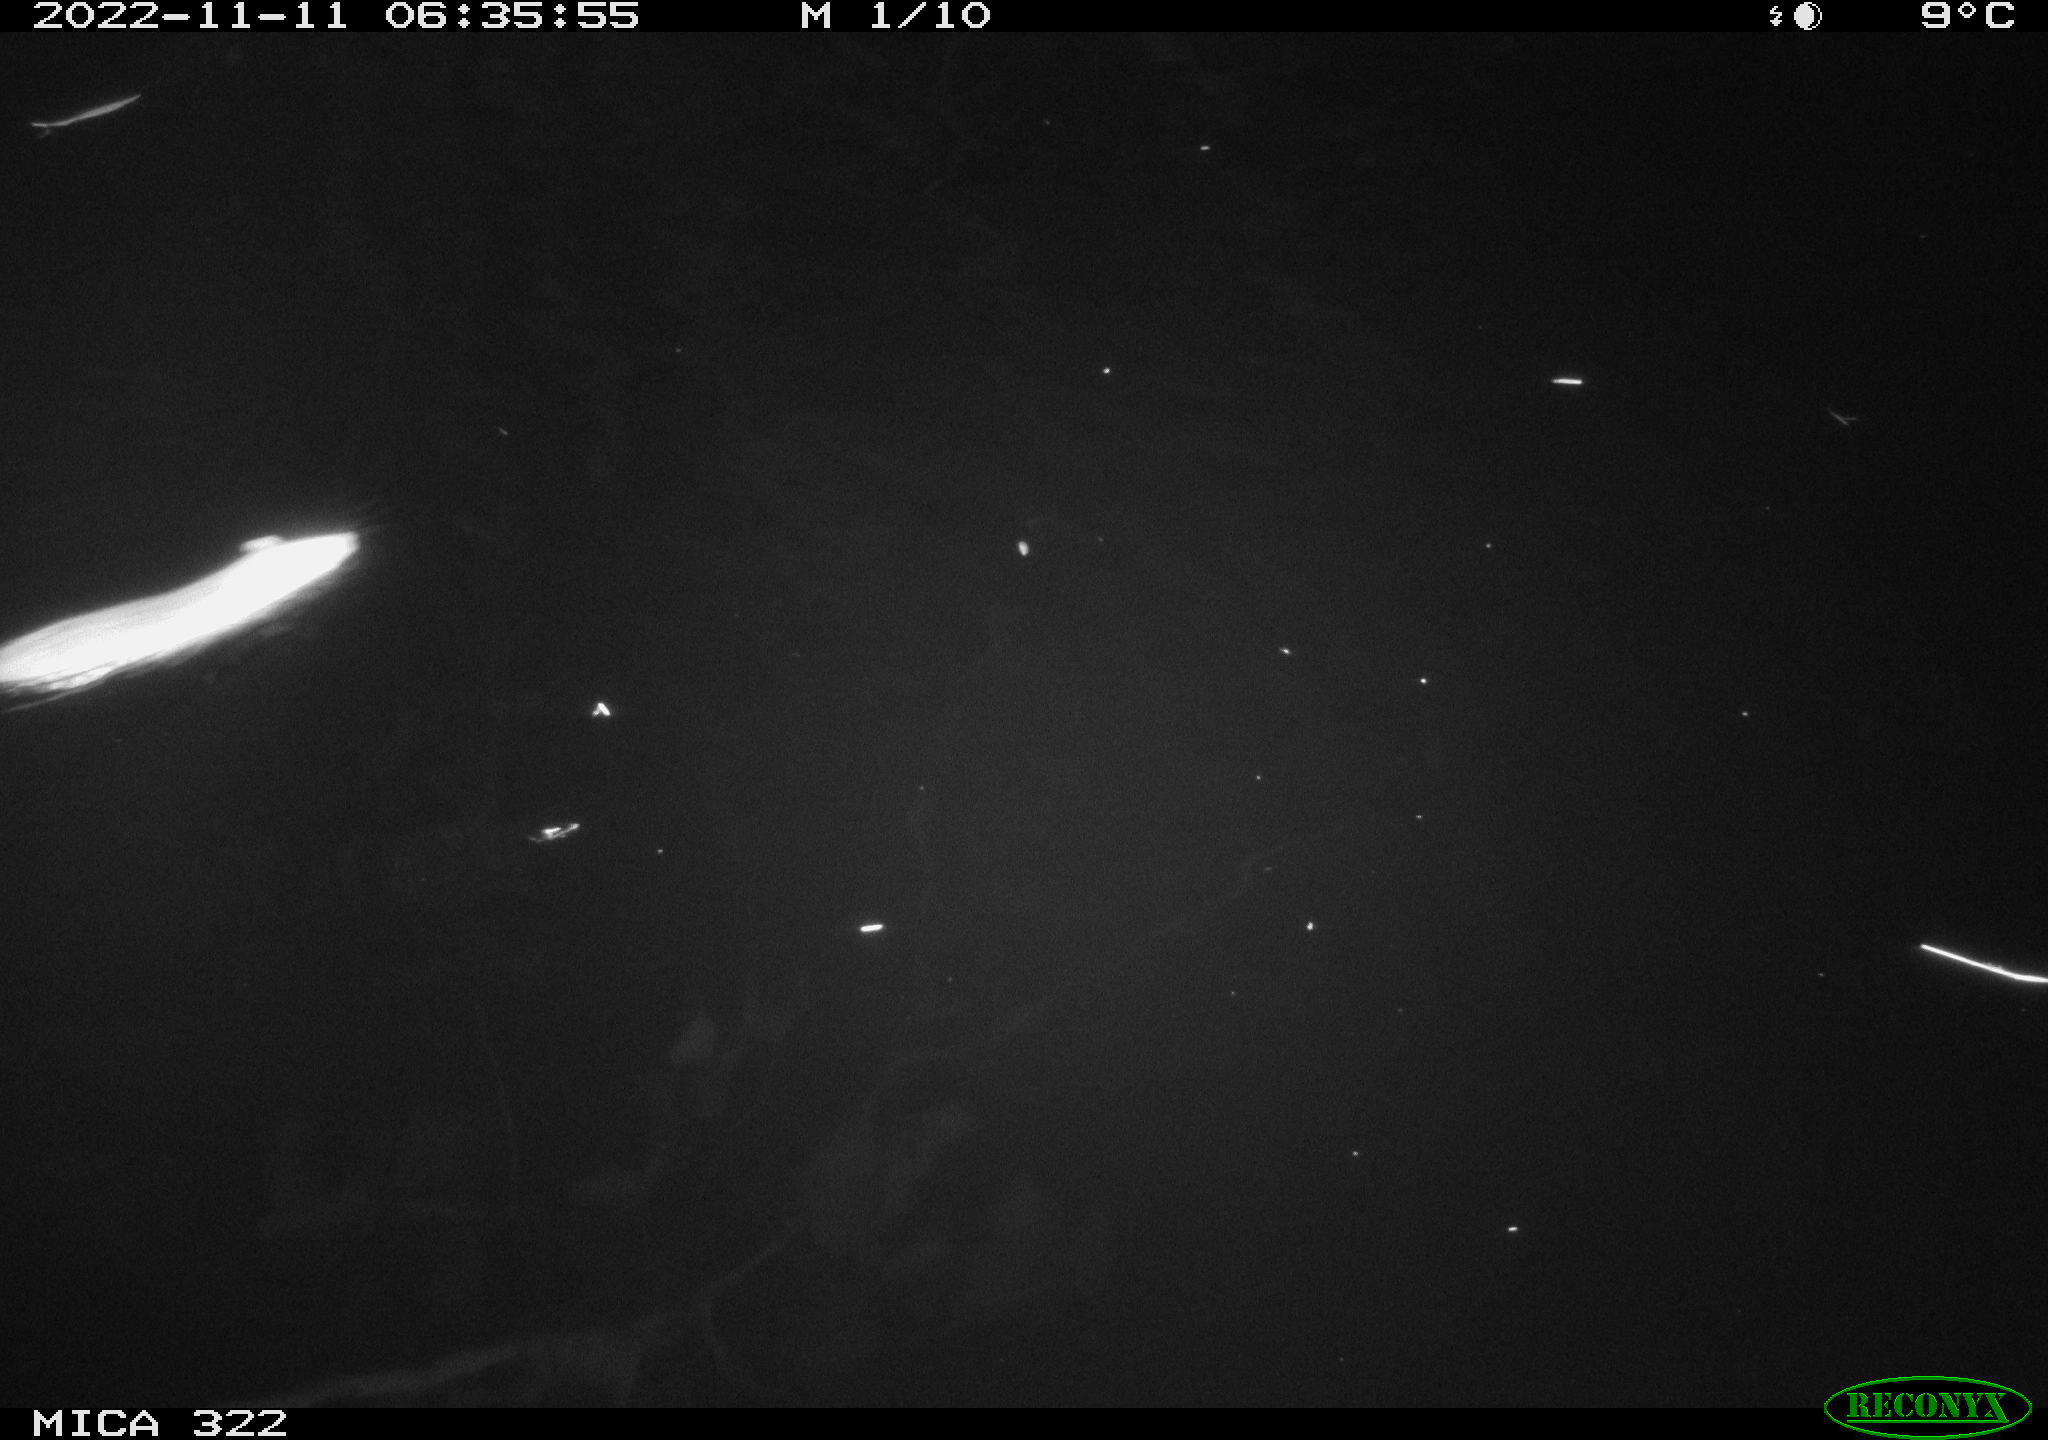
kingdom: Animalia
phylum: Chordata
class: Mammalia
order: Rodentia
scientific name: Rodentia
